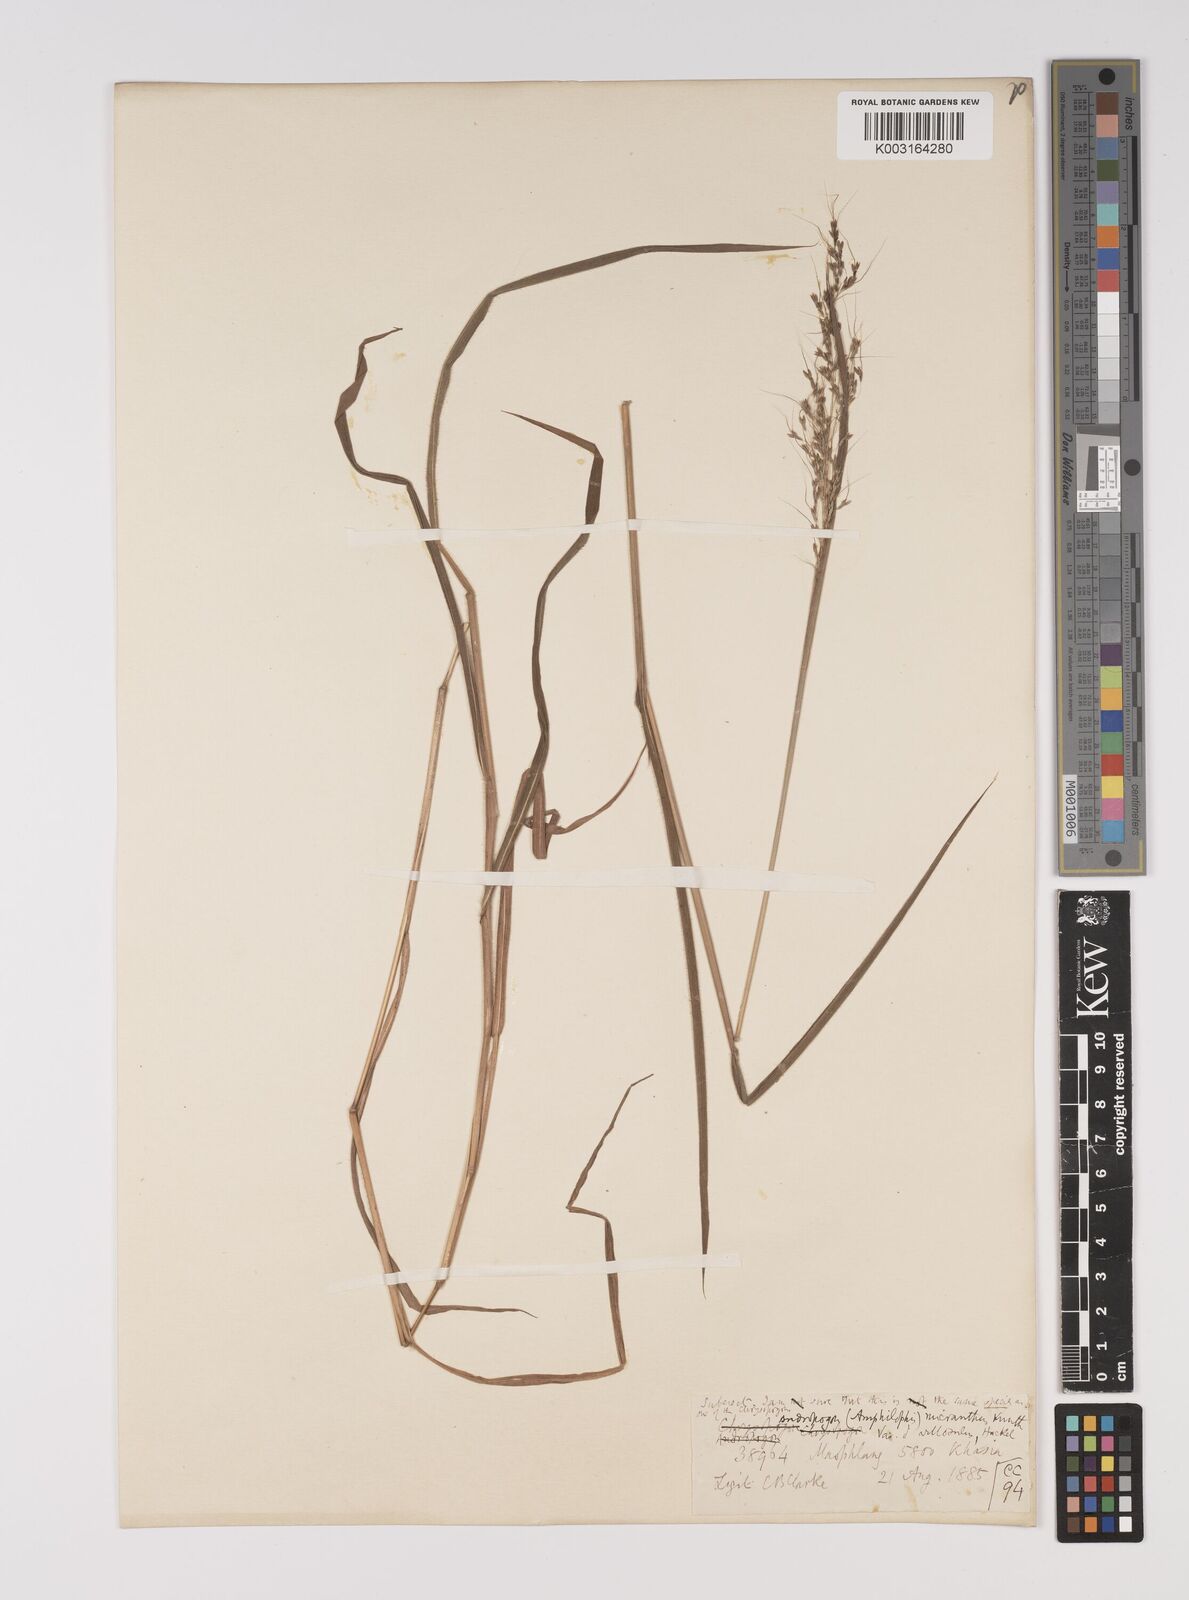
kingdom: Plantae
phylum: Tracheophyta
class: Liliopsida
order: Poales
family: Poaceae
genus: Capillipedium
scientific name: Capillipedium parviflorum
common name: Golden-beard
